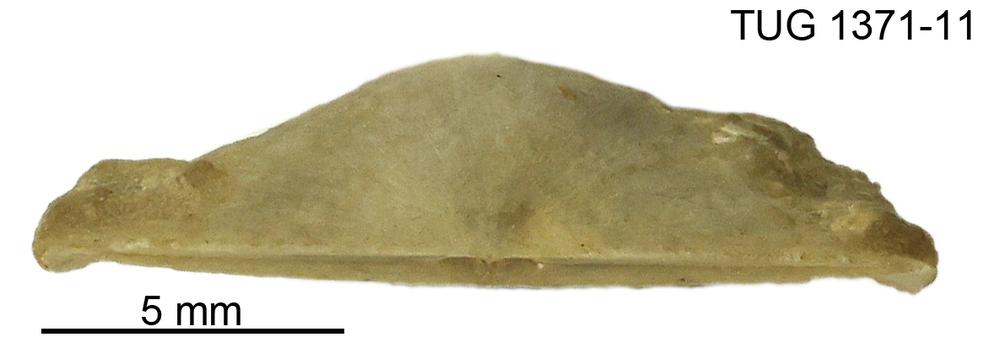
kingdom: Animalia
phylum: Brachiopoda
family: Sowerbyellidae
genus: Eochonetes
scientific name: Eochonetes
